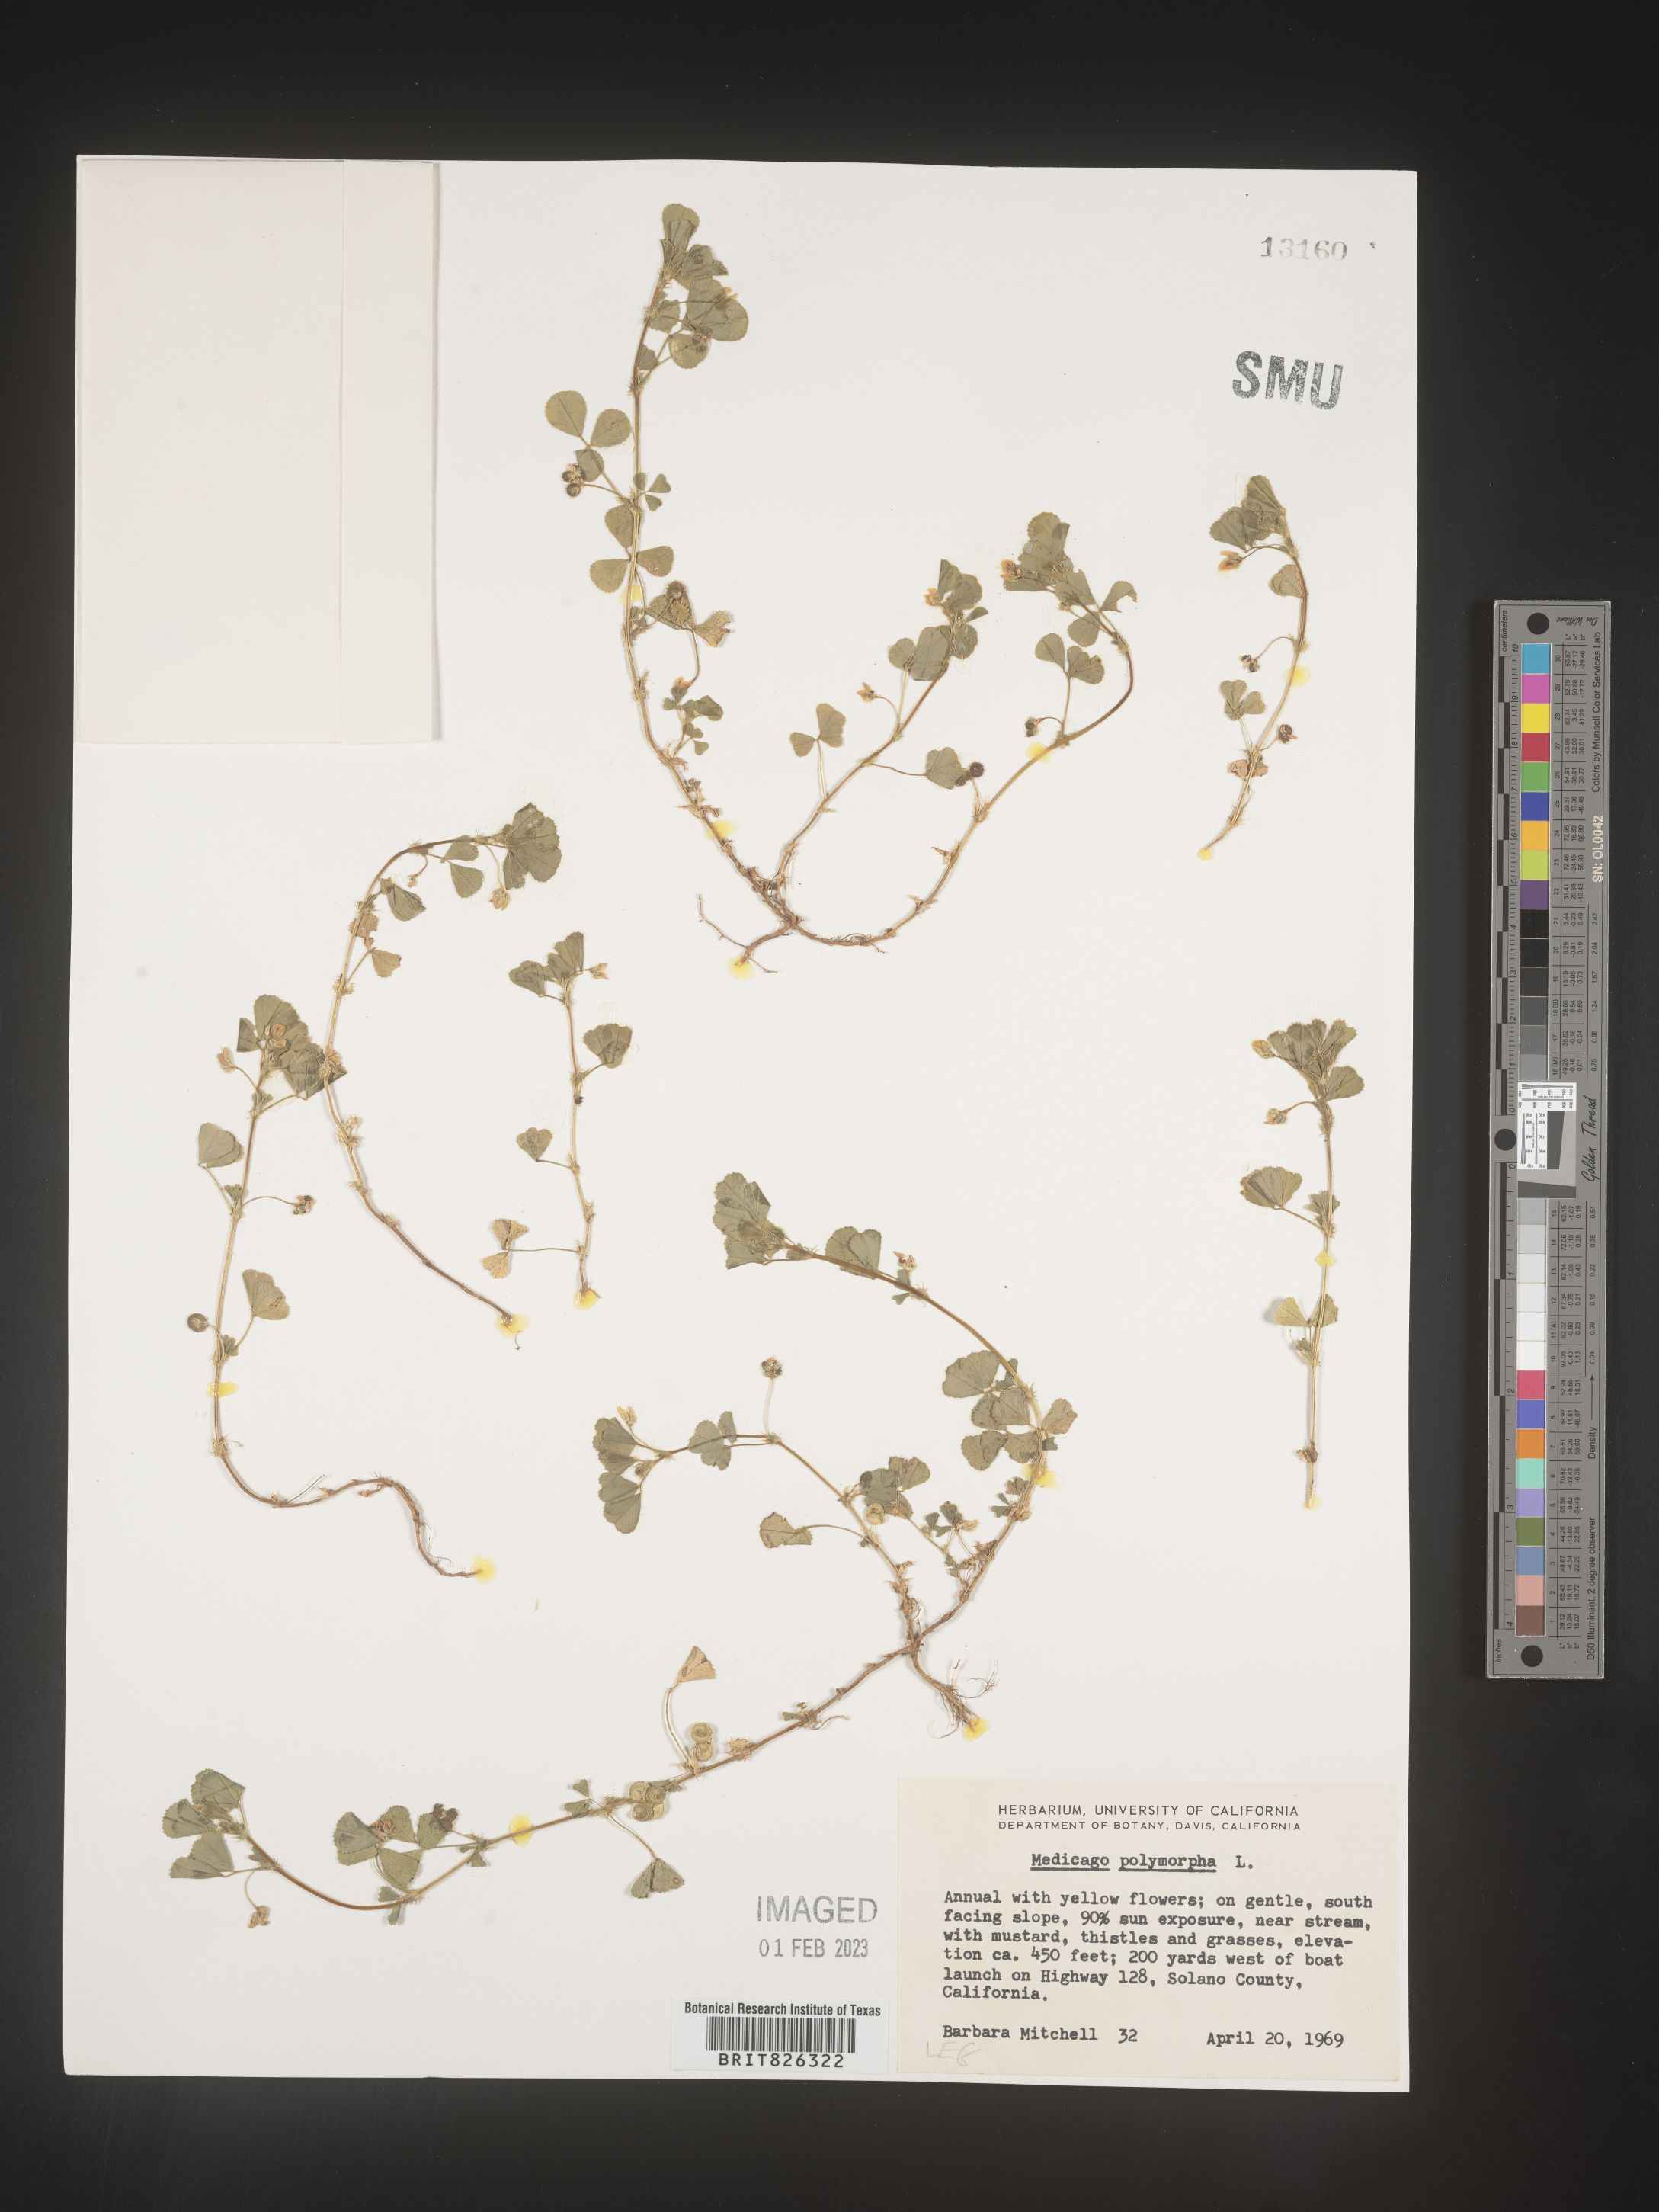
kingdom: Plantae
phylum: Tracheophyta
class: Magnoliopsida
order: Fabales
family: Fabaceae
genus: Medicago
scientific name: Medicago polymorpha
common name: Burclover
